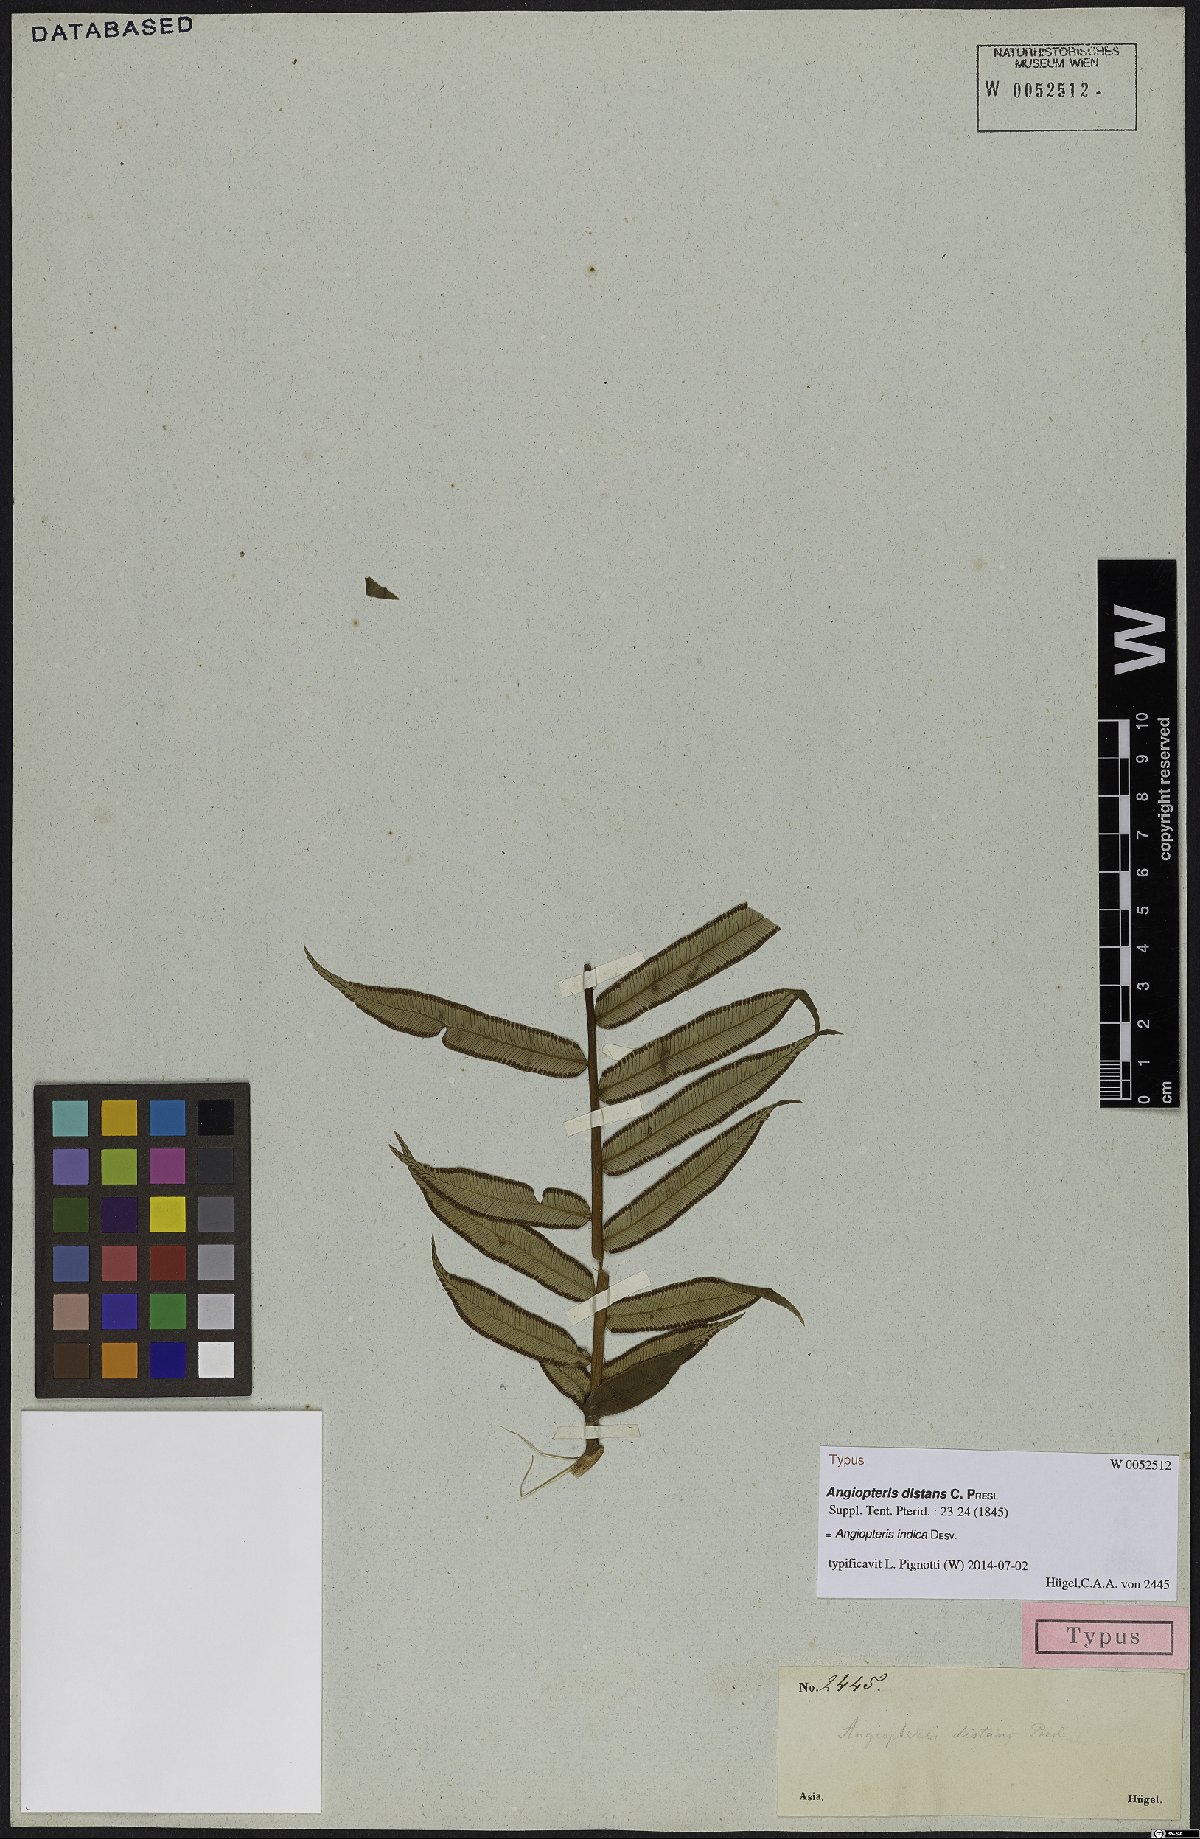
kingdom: Plantae
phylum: Tracheophyta
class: Polypodiopsida
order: Marattiales
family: Marattiaceae
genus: Angiopteris
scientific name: Angiopteris indica
